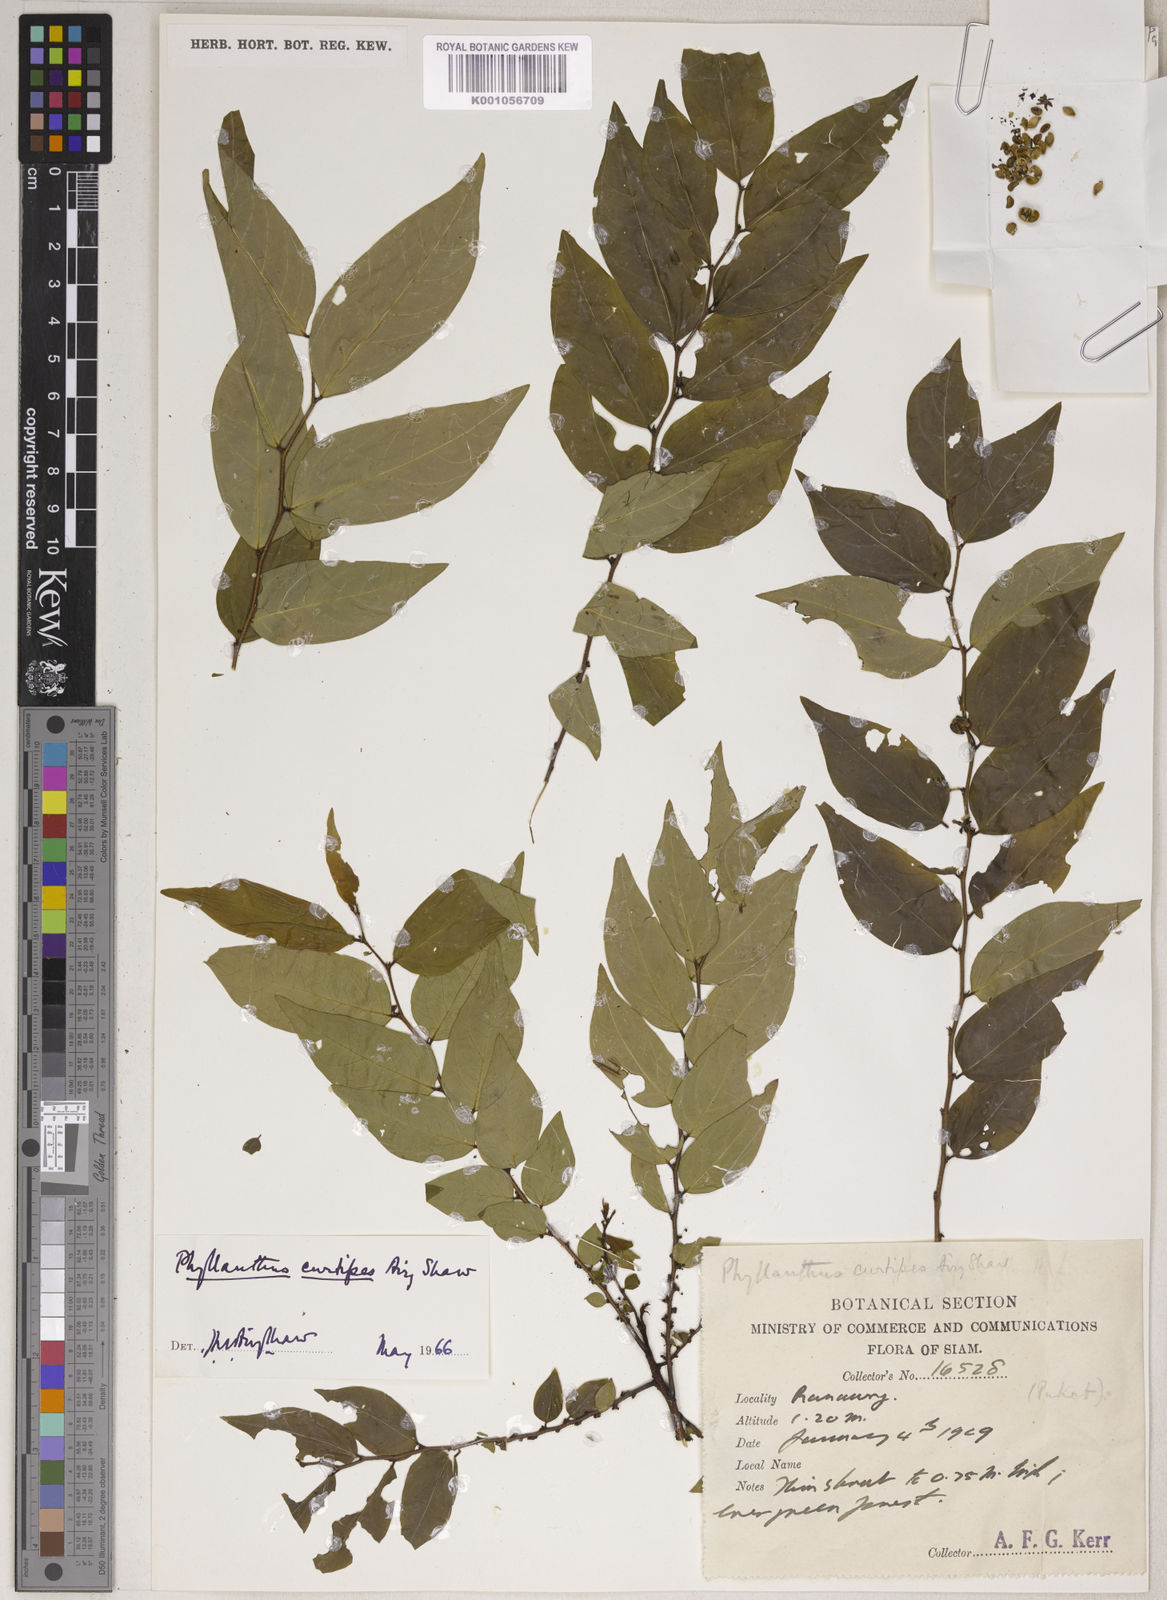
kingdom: Plantae
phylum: Tracheophyta
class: Magnoliopsida
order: Malpighiales
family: Phyllanthaceae
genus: Phyllanthus
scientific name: Phyllanthus acutissimus
